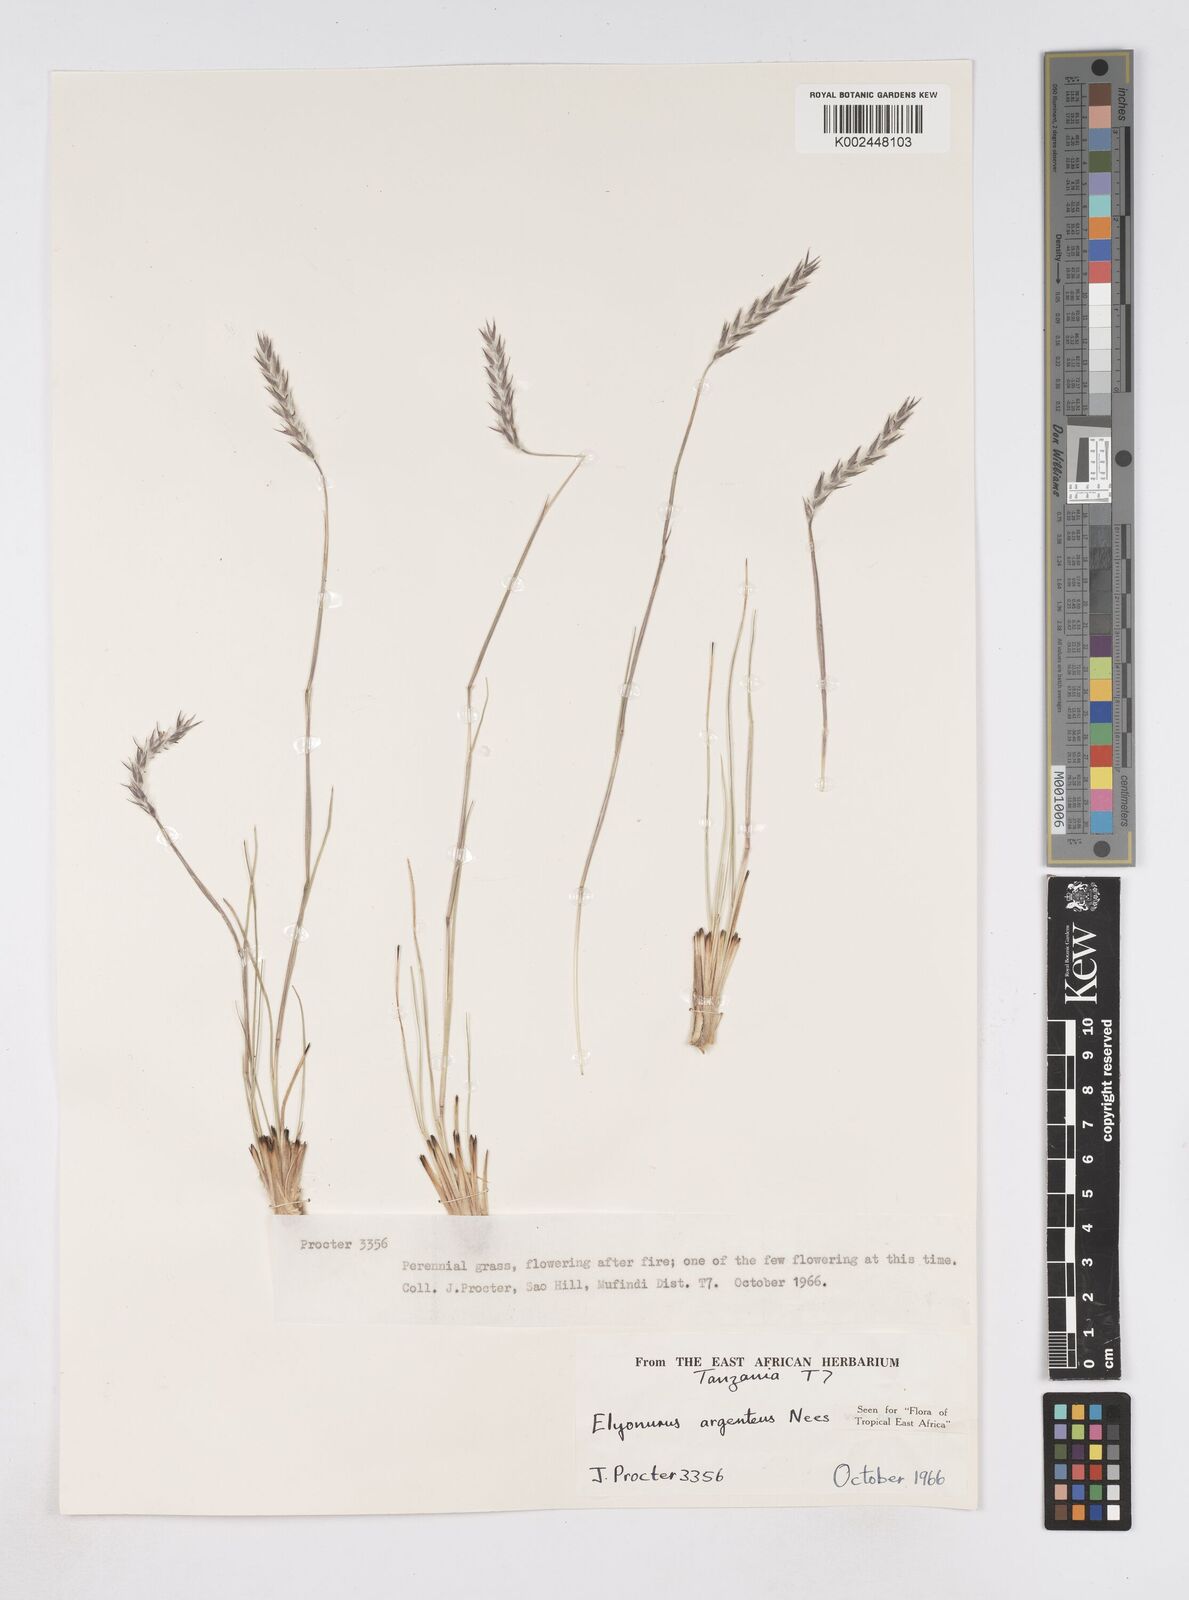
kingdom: Plantae
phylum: Tracheophyta
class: Liliopsida
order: Poales
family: Poaceae
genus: Elionurus
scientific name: Elionurus muticus
